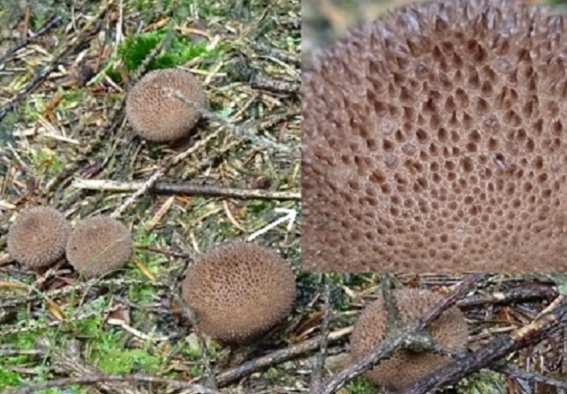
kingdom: Fungi
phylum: Basidiomycota
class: Agaricomycetes
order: Agaricales
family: Lycoperdaceae
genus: Lycoperdon
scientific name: Lycoperdon nigrescens
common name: sortagtig støvbold
